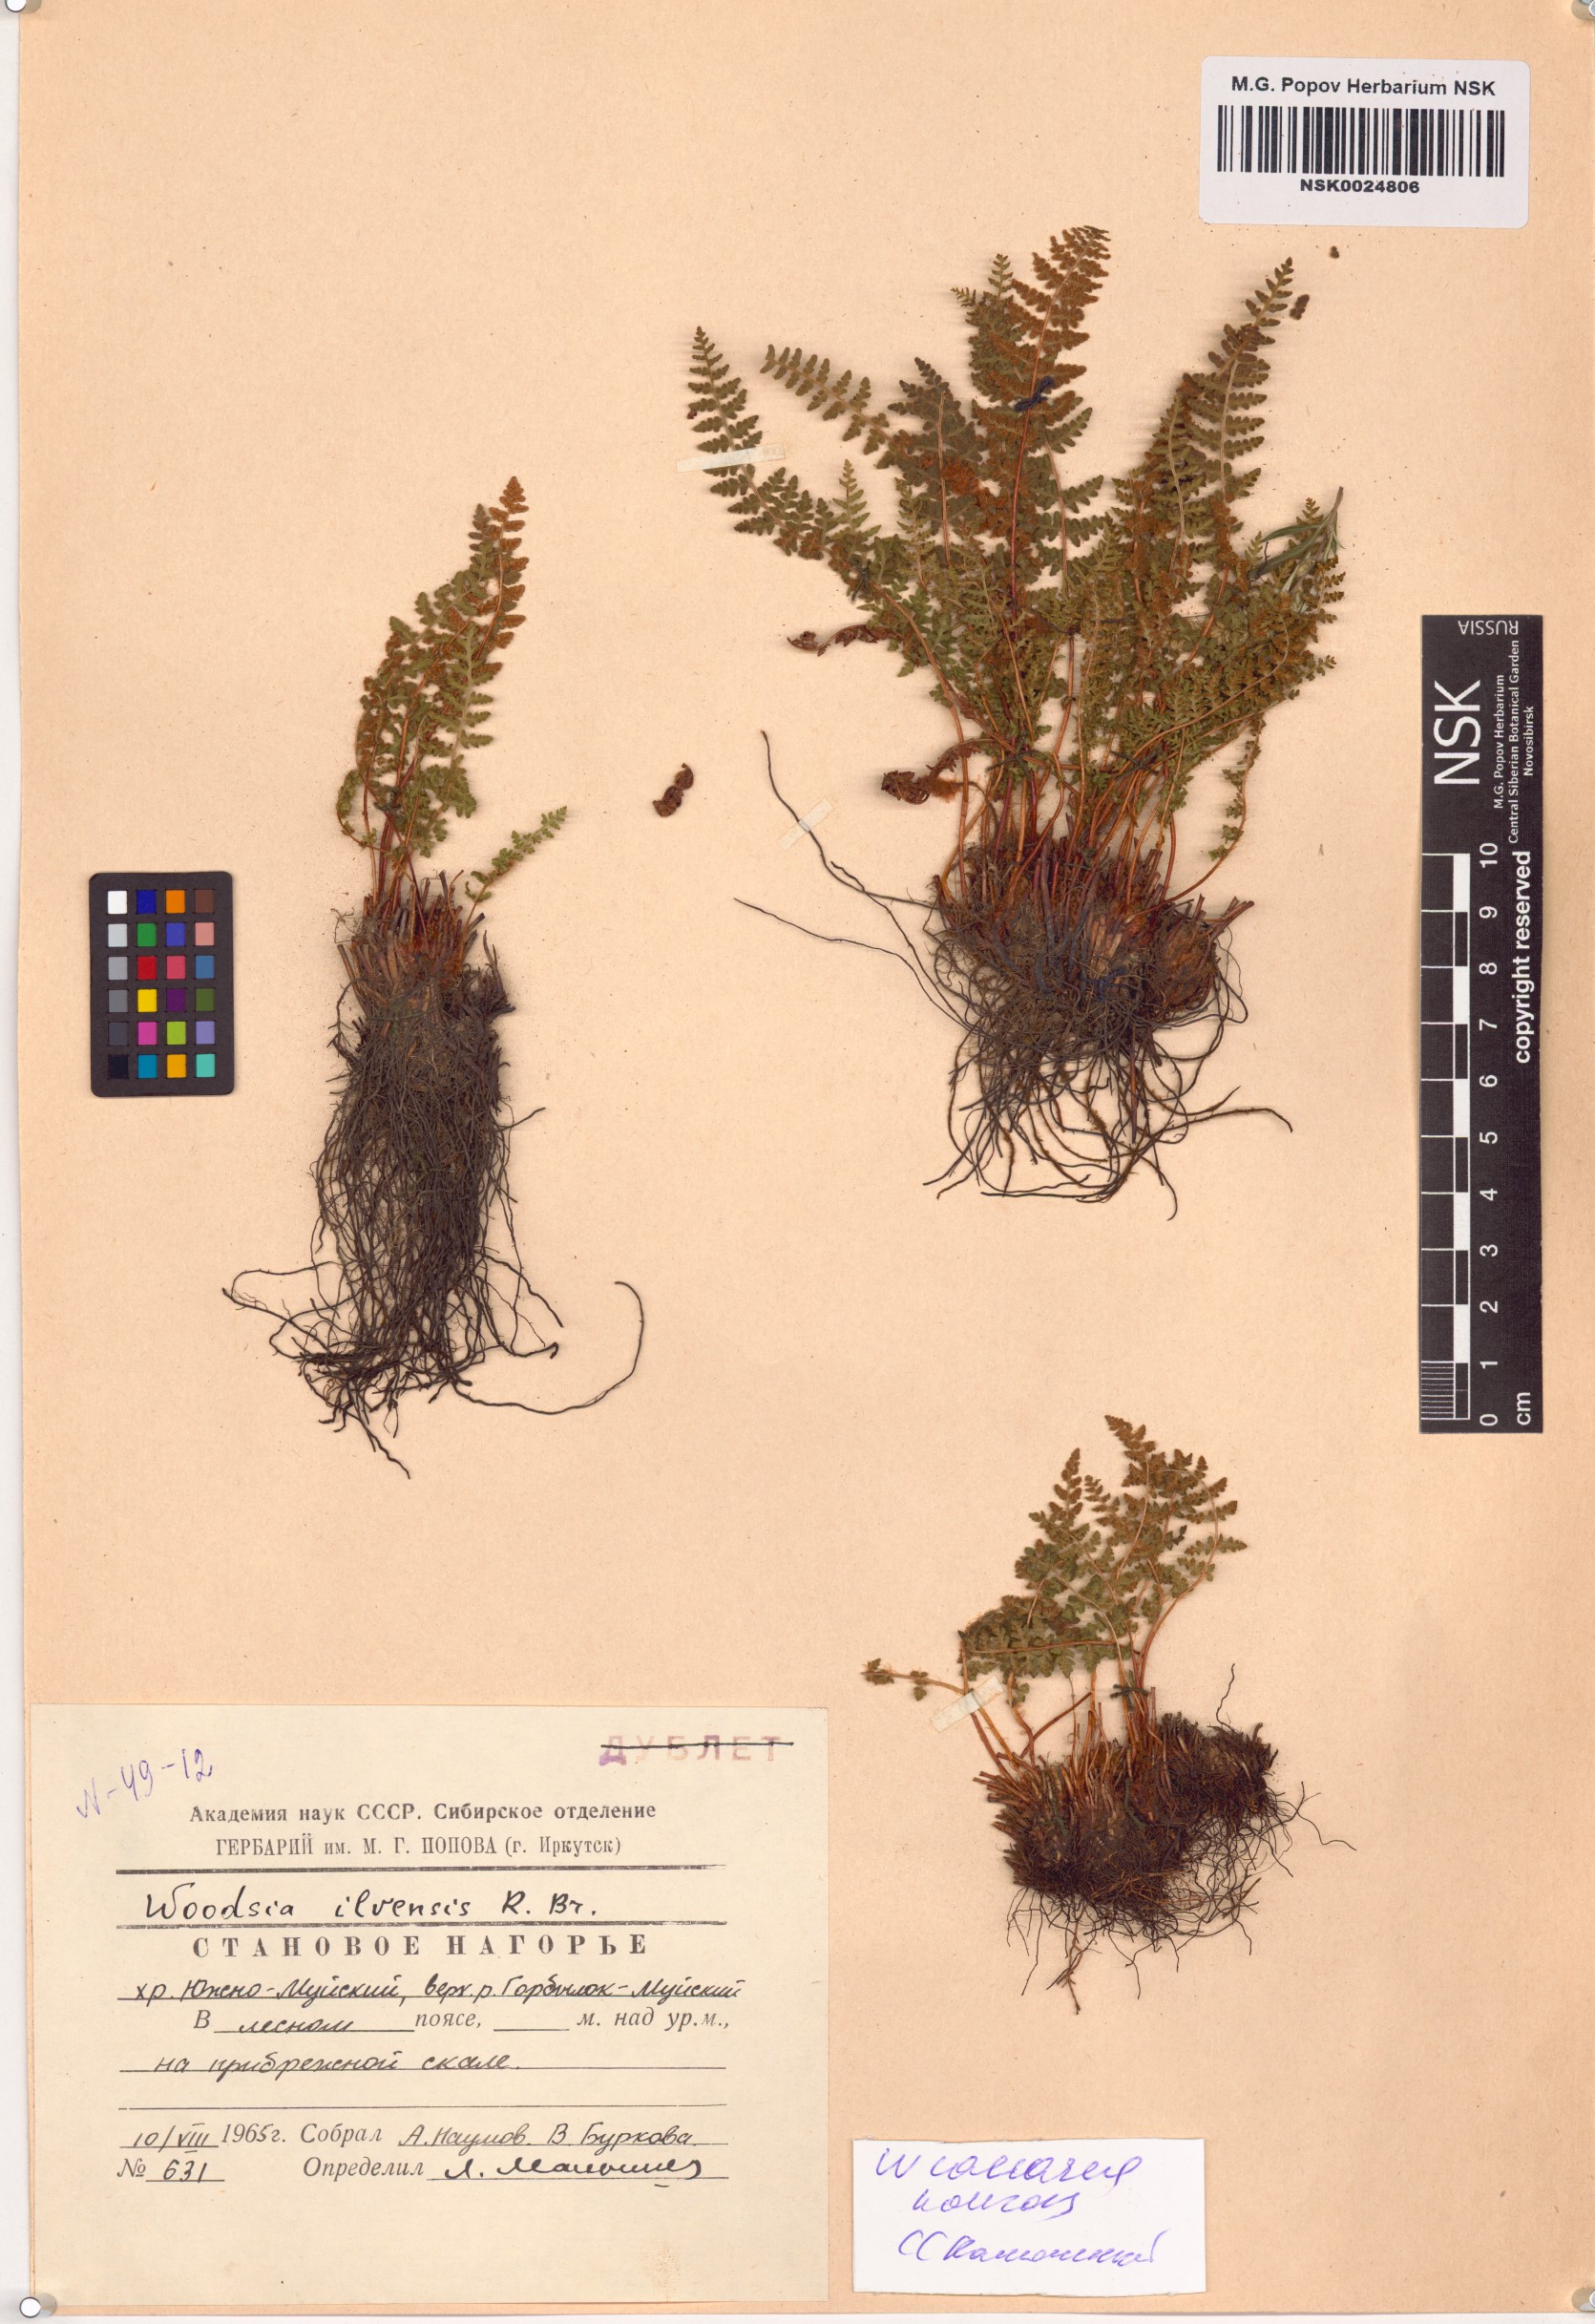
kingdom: Plantae
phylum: Tracheophyta
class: Polypodiopsida
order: Polypodiales
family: Woodsiaceae
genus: Woodsia
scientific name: Woodsia calcarea
